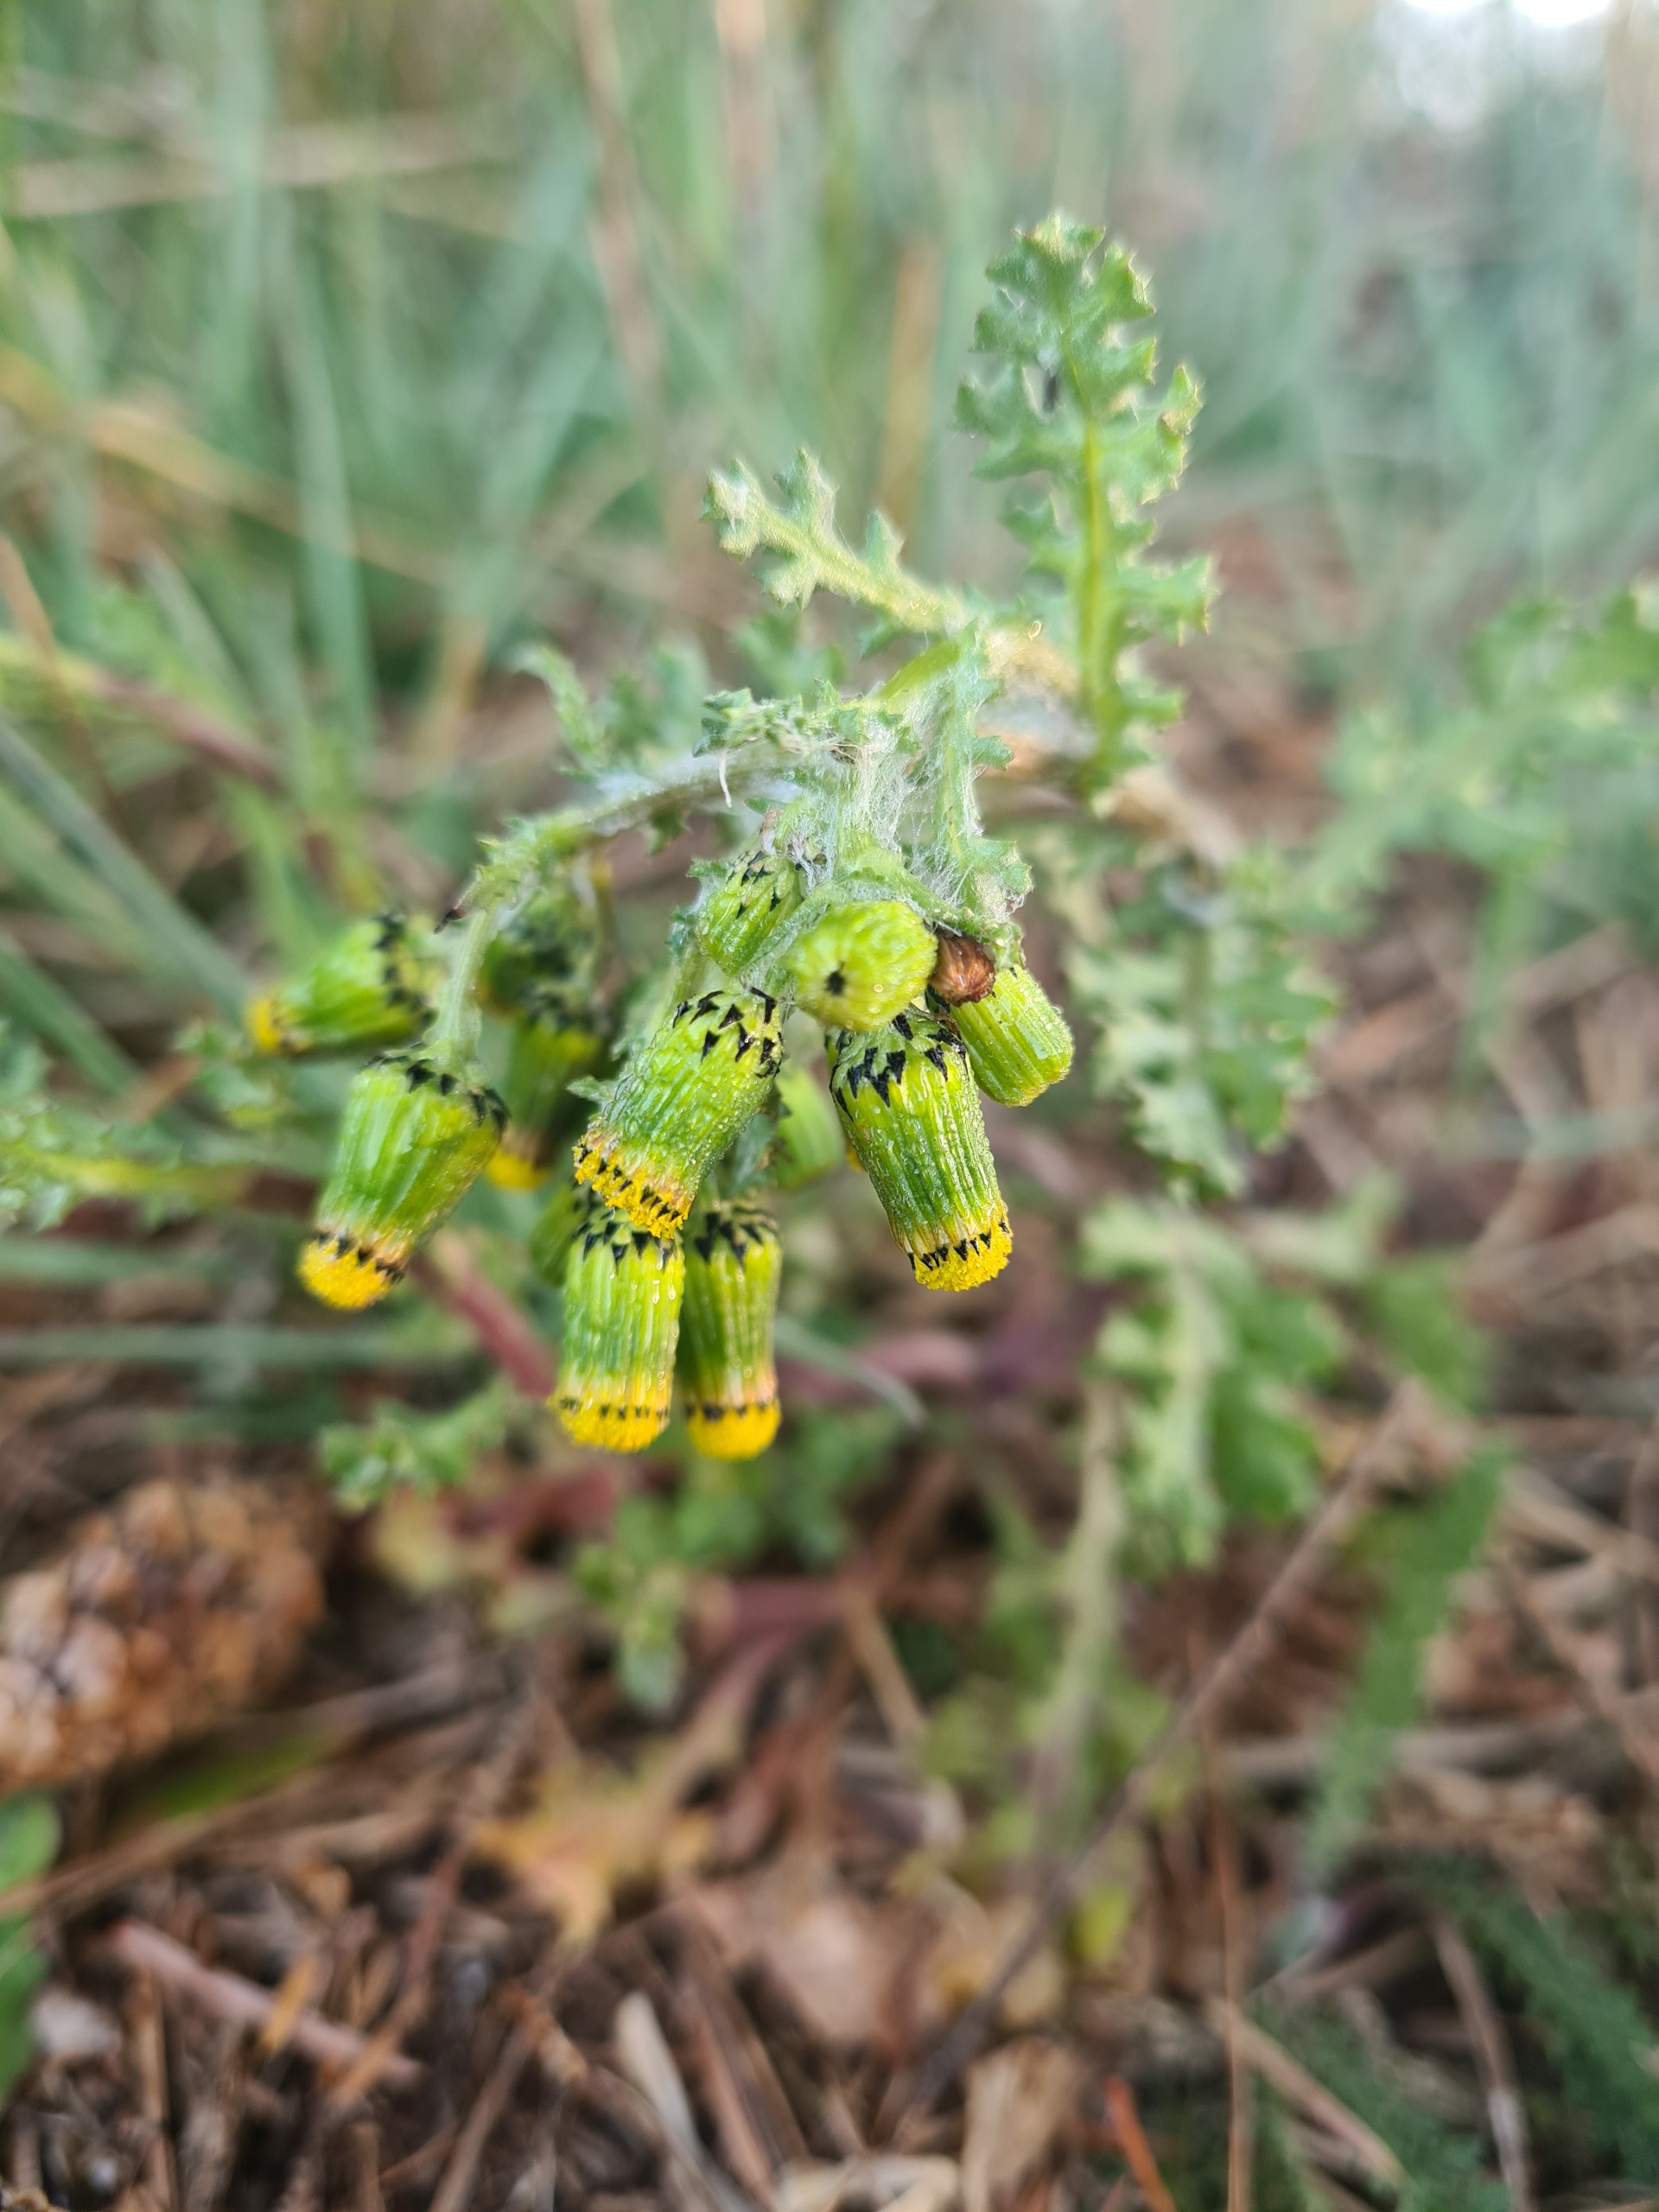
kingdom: Plantae
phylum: Tracheophyta
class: Magnoliopsida
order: Asterales
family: Asteraceae
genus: Senecio
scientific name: Senecio vulgaris
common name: Almindelig brandbæger
